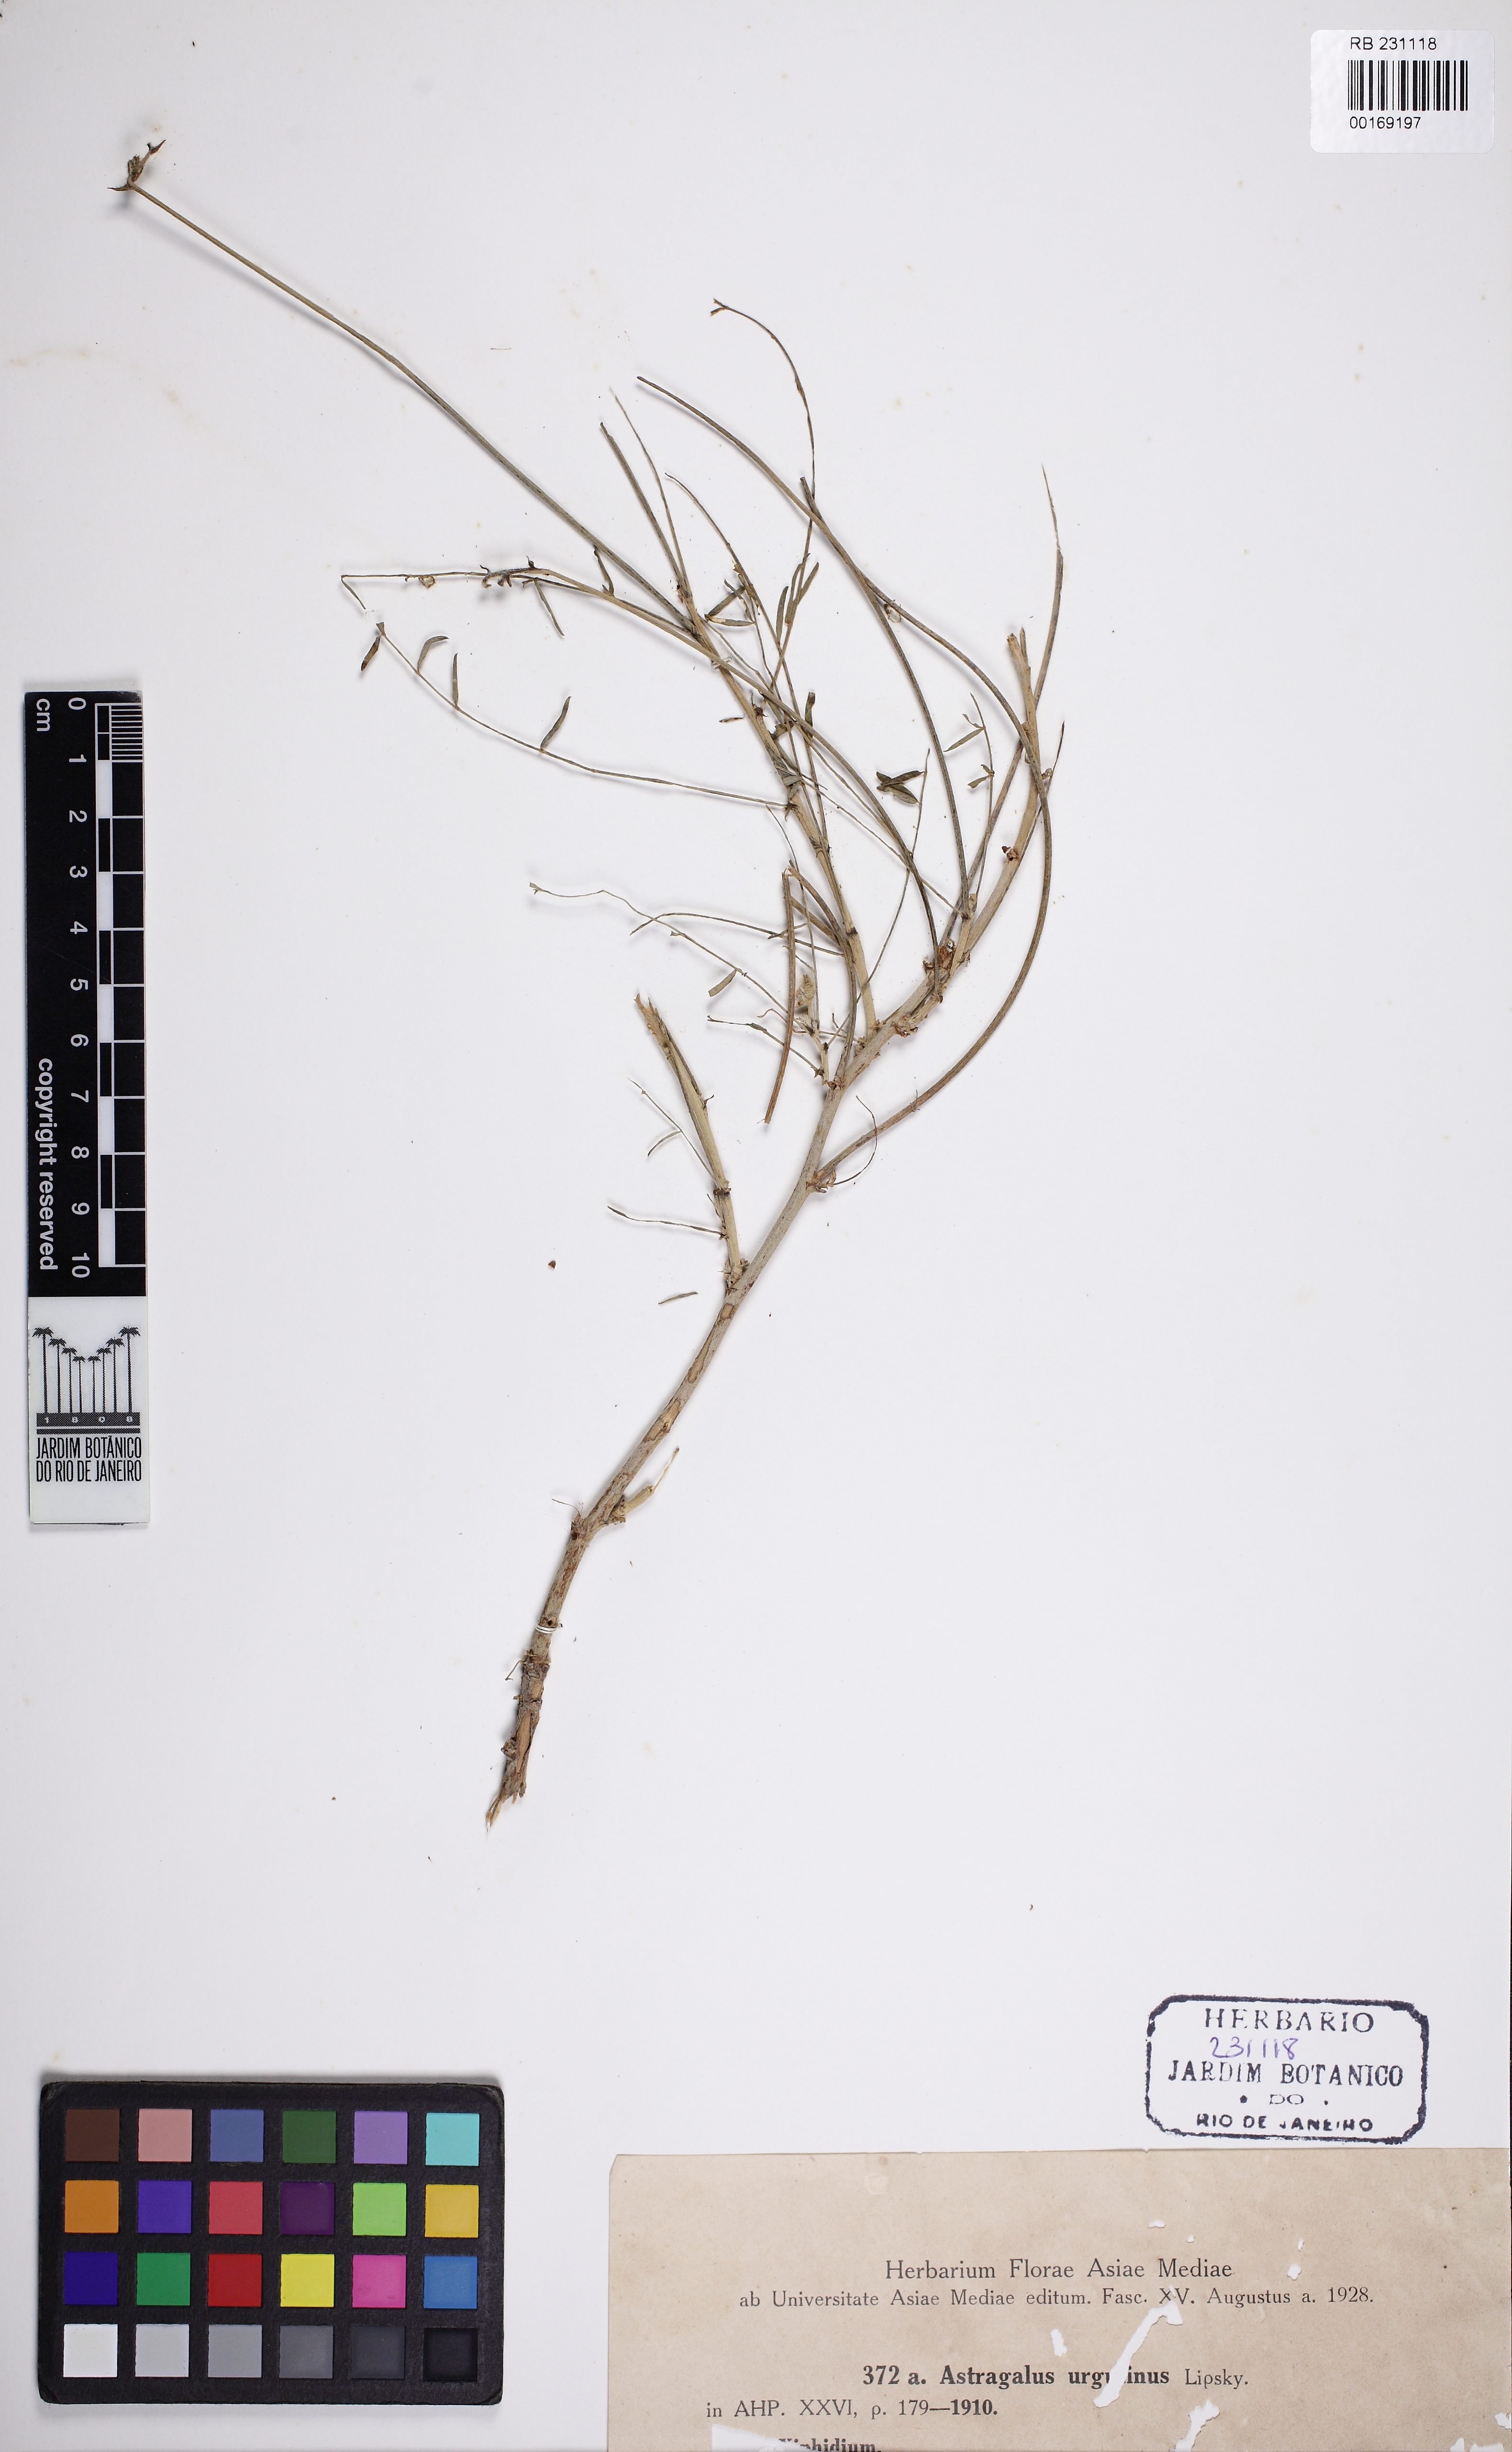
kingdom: Plantae
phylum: Tracheophyta
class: Magnoliopsida
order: Fabales
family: Fabaceae
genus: Astragalus
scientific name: Astragalus urgutinus
